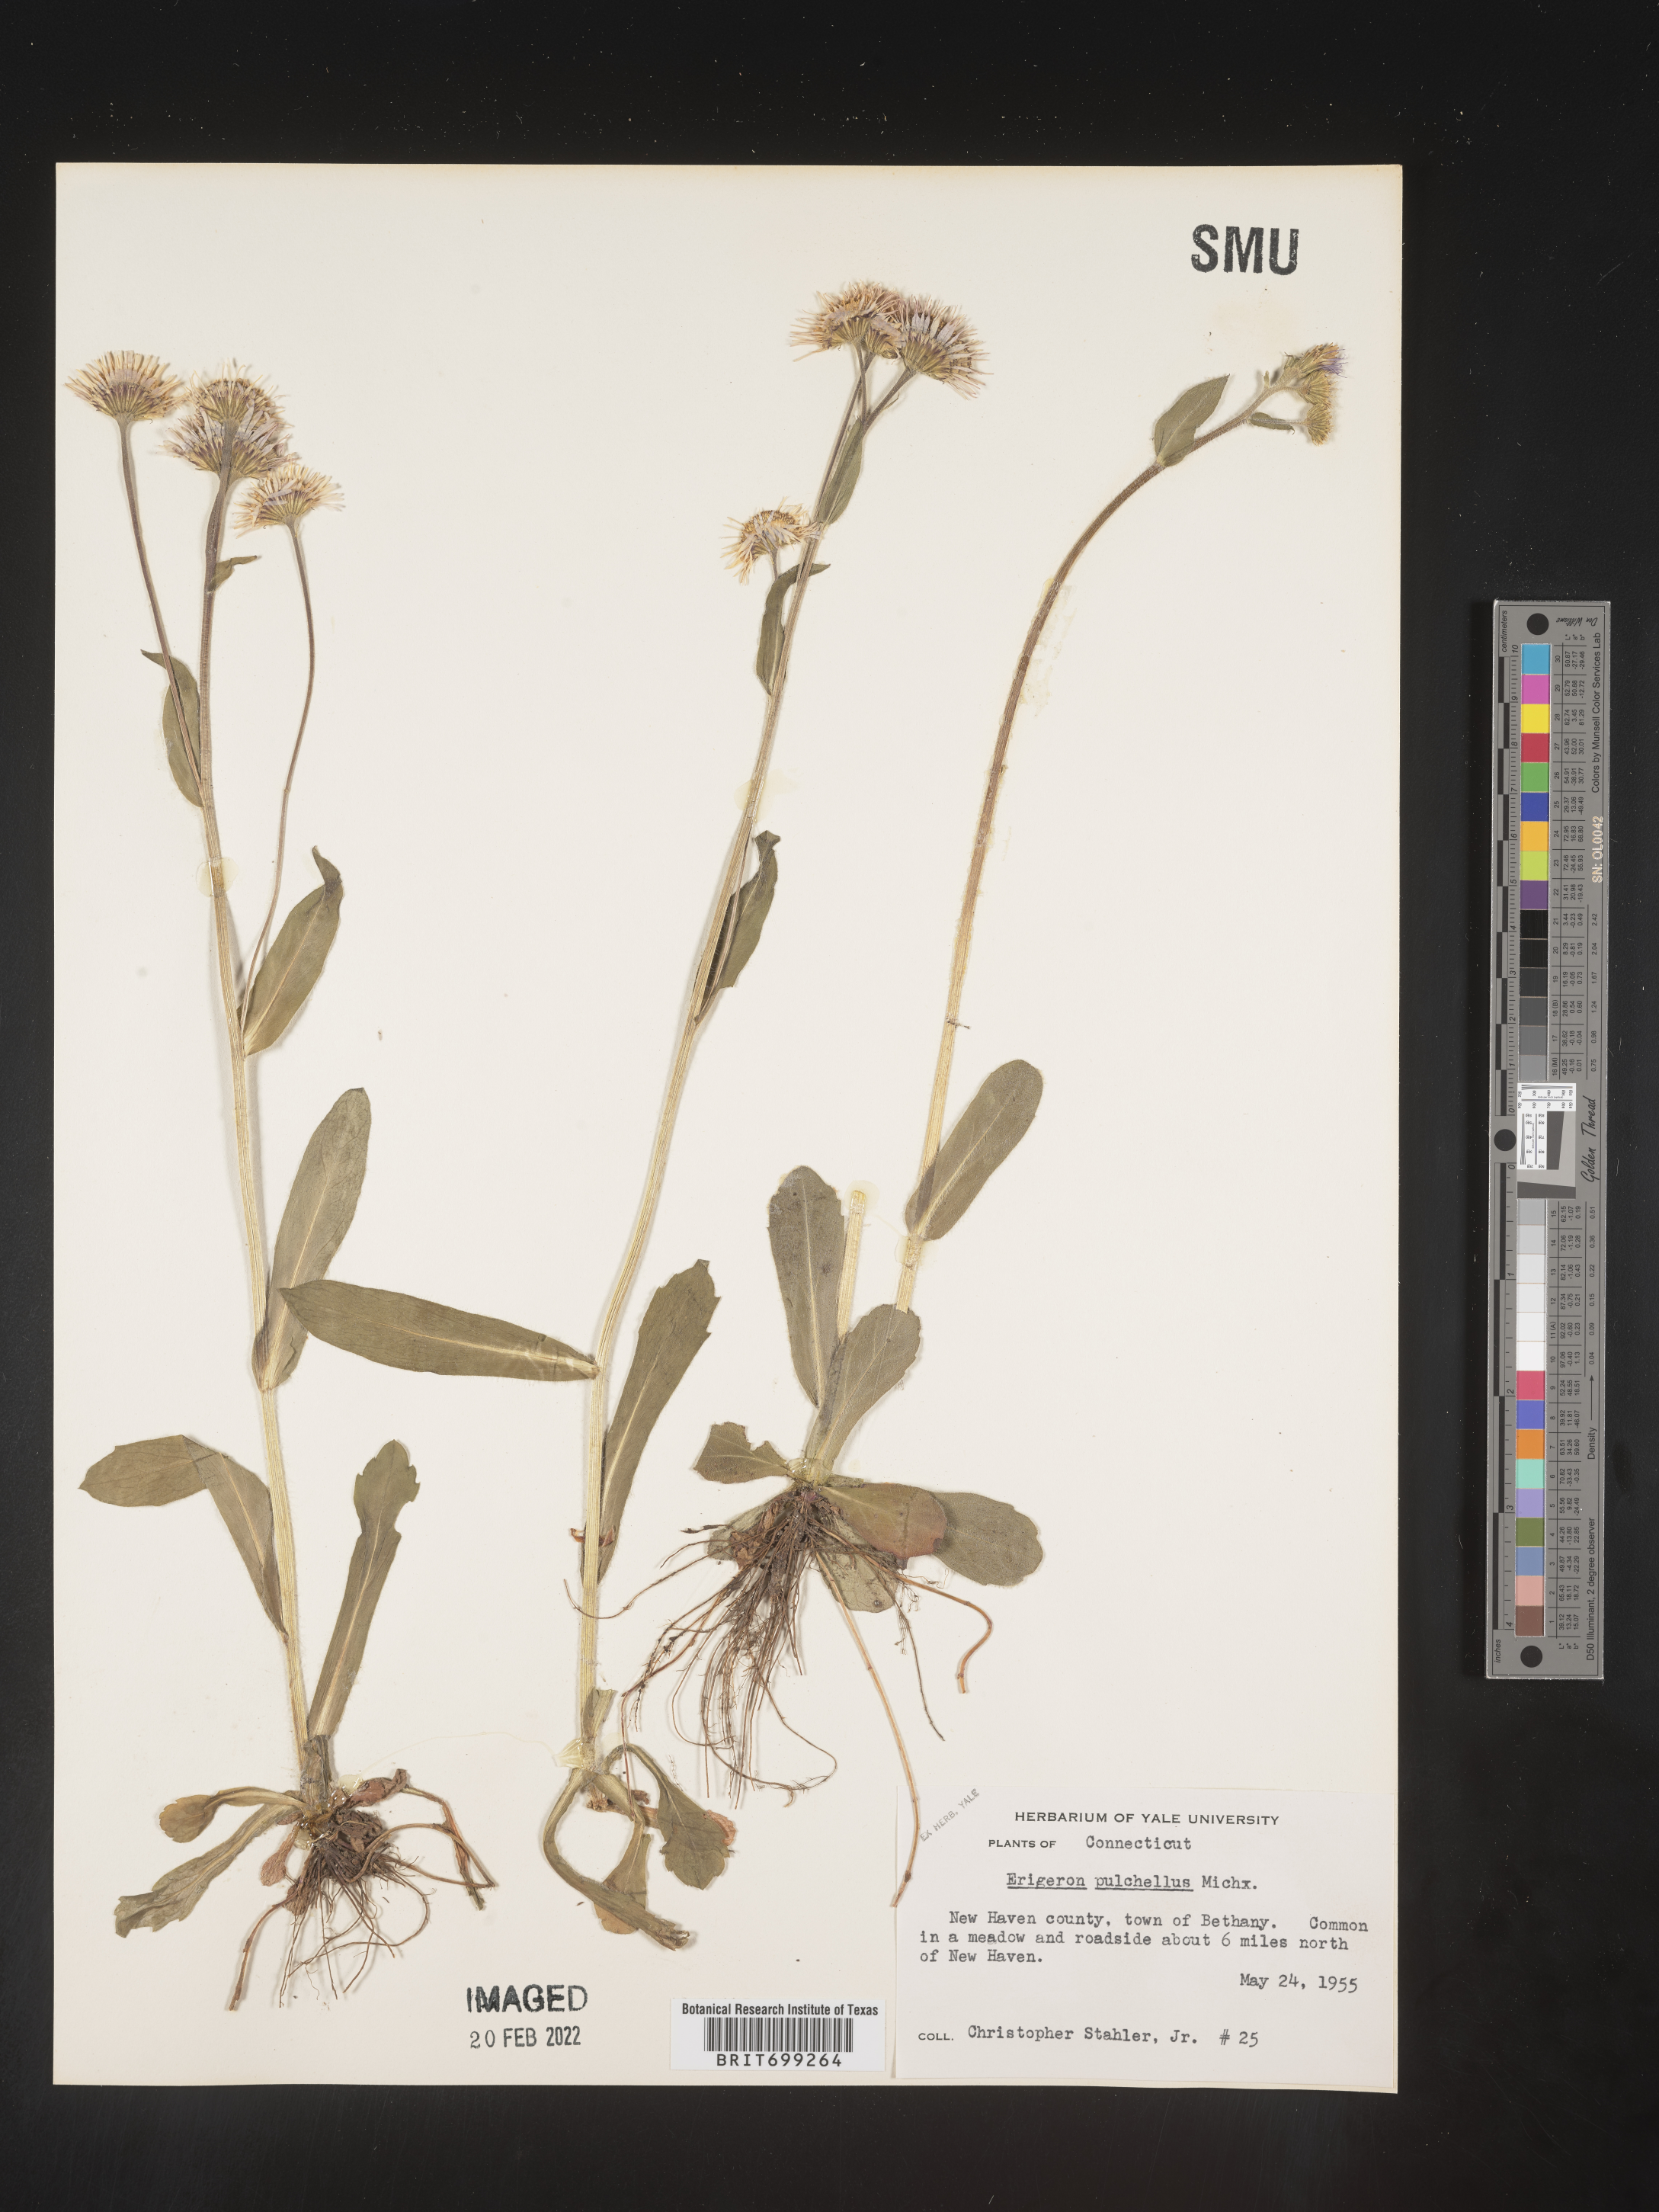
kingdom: Plantae
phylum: Tracheophyta
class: Magnoliopsida
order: Asterales
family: Asteraceae
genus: Erigeron
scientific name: Erigeron pulchellus
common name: Hairy fleabane
